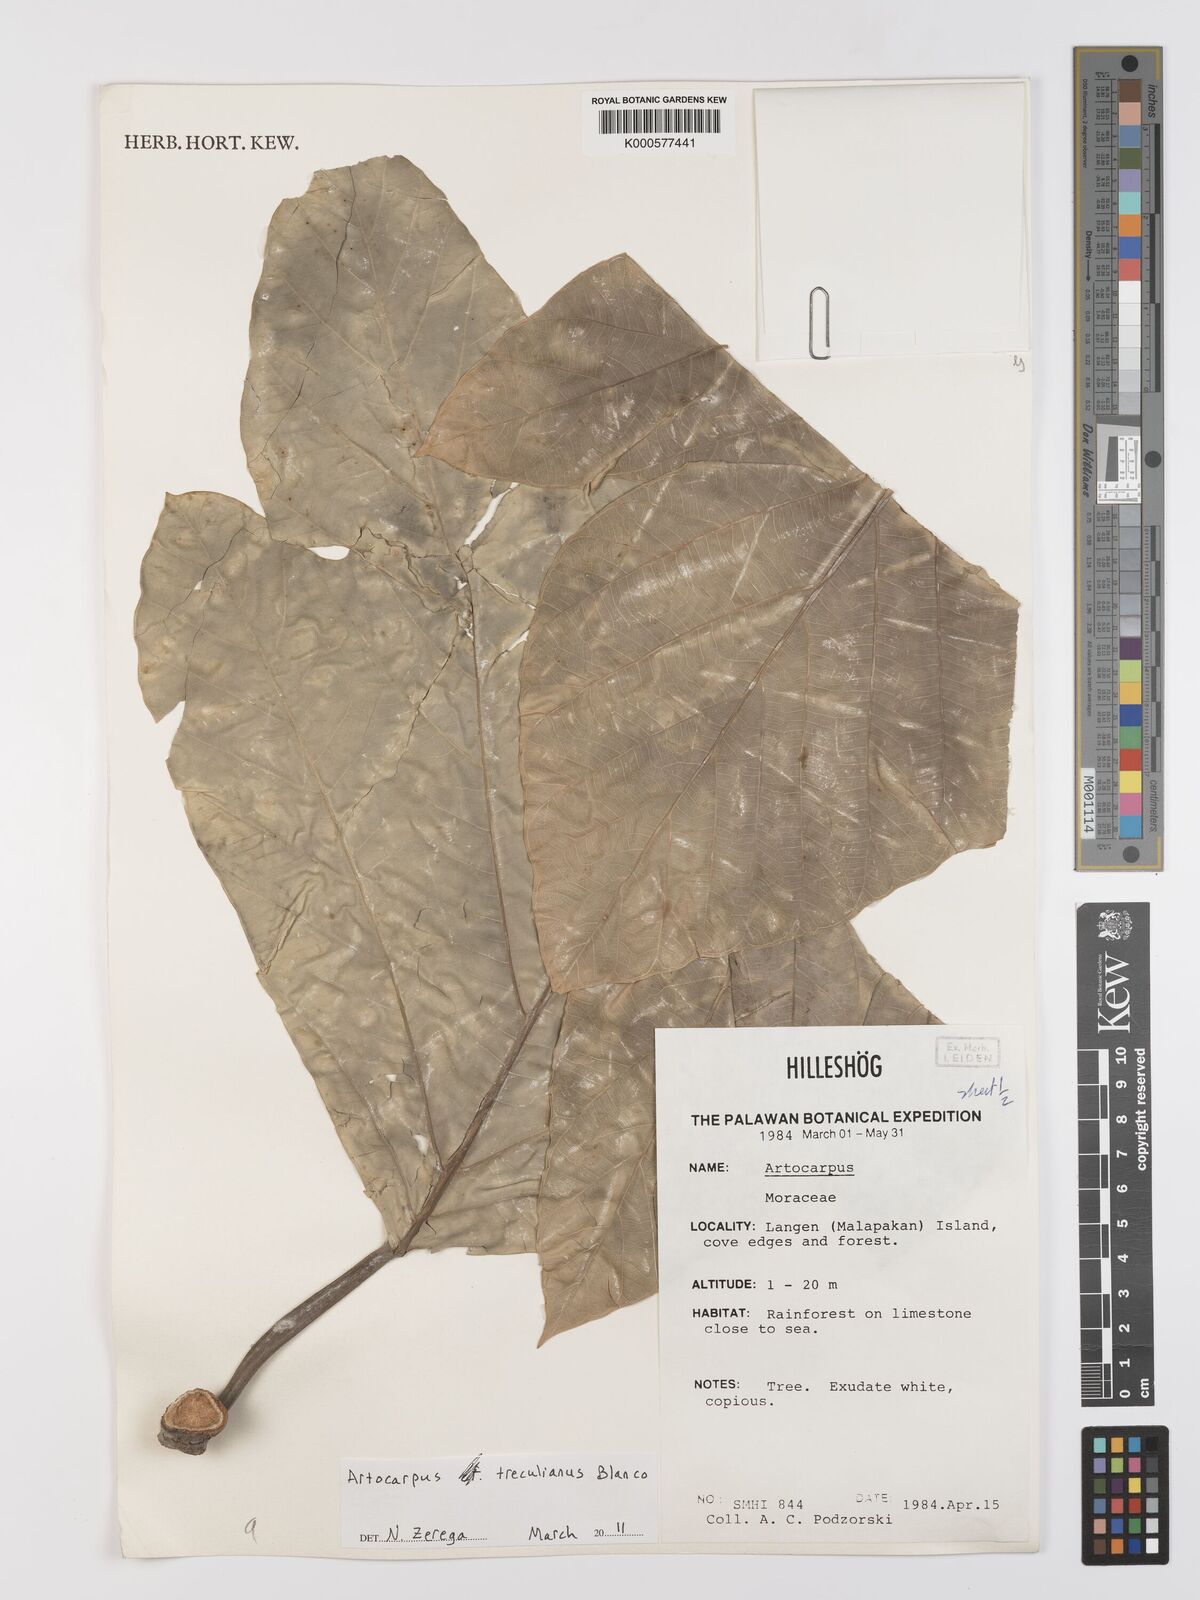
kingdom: Plantae
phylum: Tracheophyta
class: Magnoliopsida
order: Rosales
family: Moraceae
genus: Artocarpus
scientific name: Artocarpus
